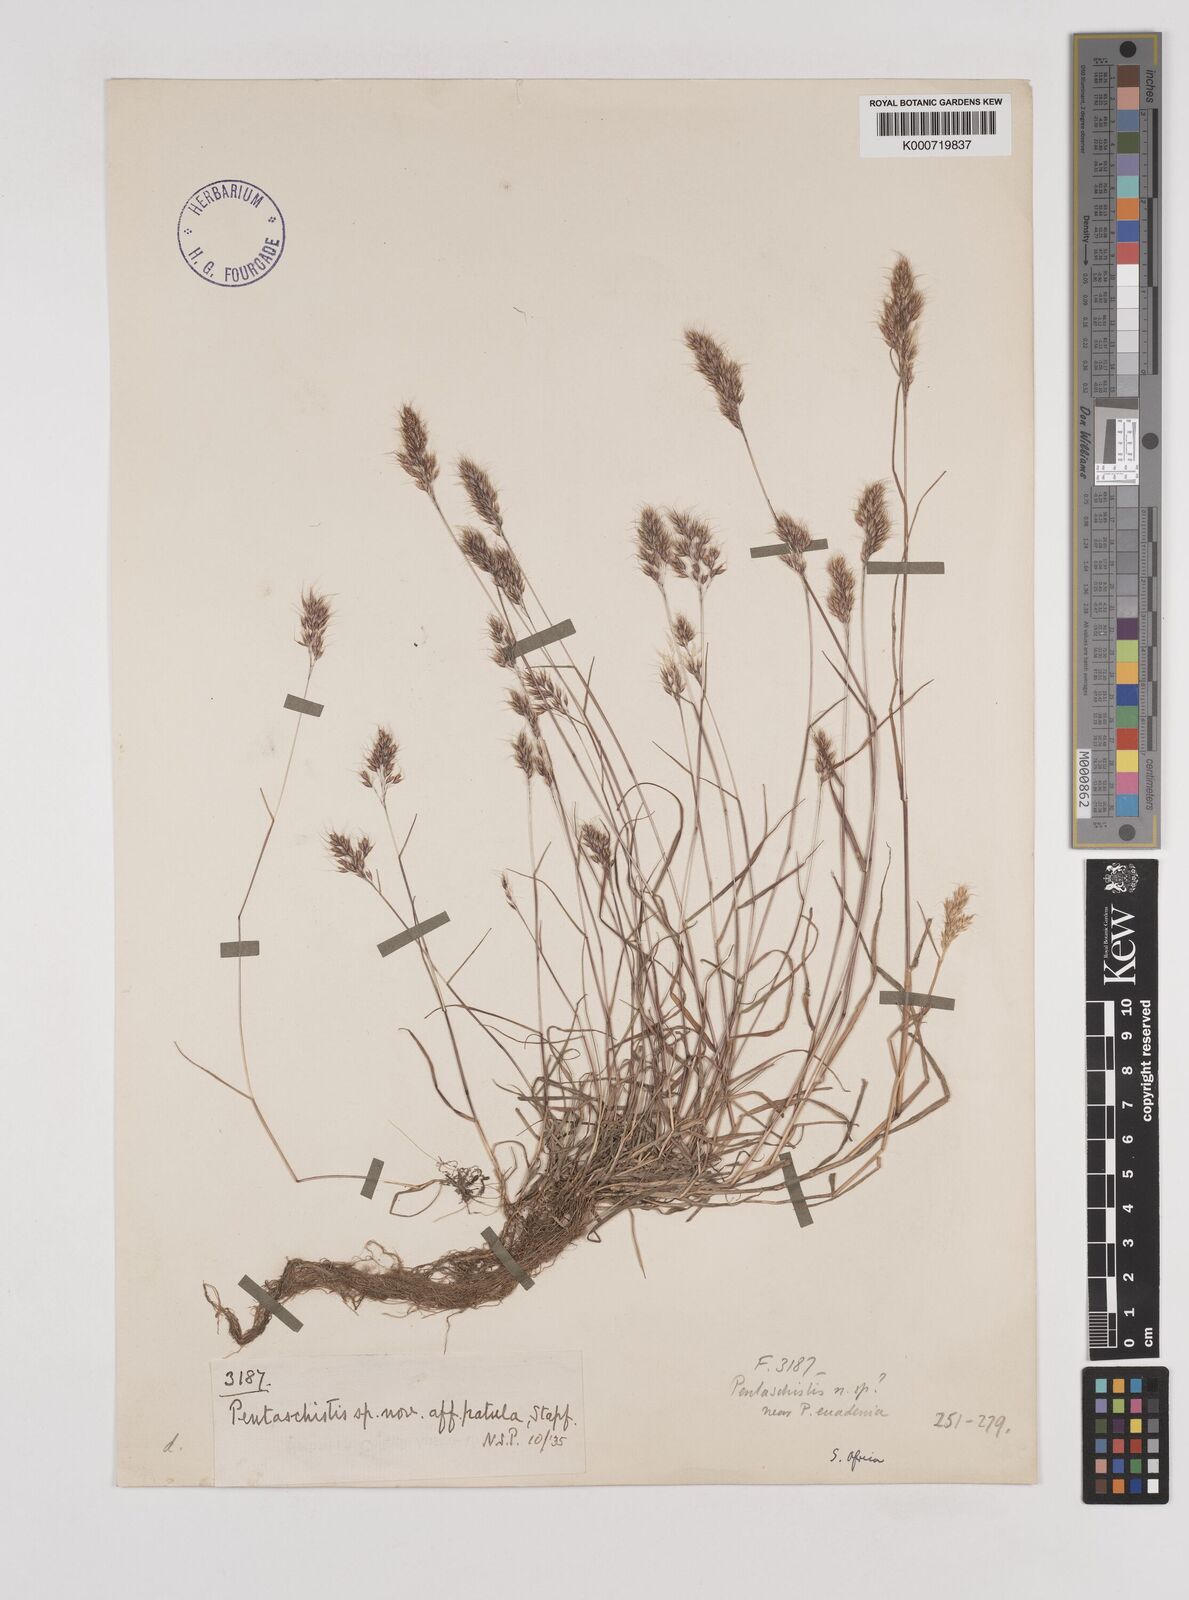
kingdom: Plantae
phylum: Tracheophyta
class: Liliopsida
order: Poales
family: Poaceae
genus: Pentaschistis
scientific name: Pentaschistis
